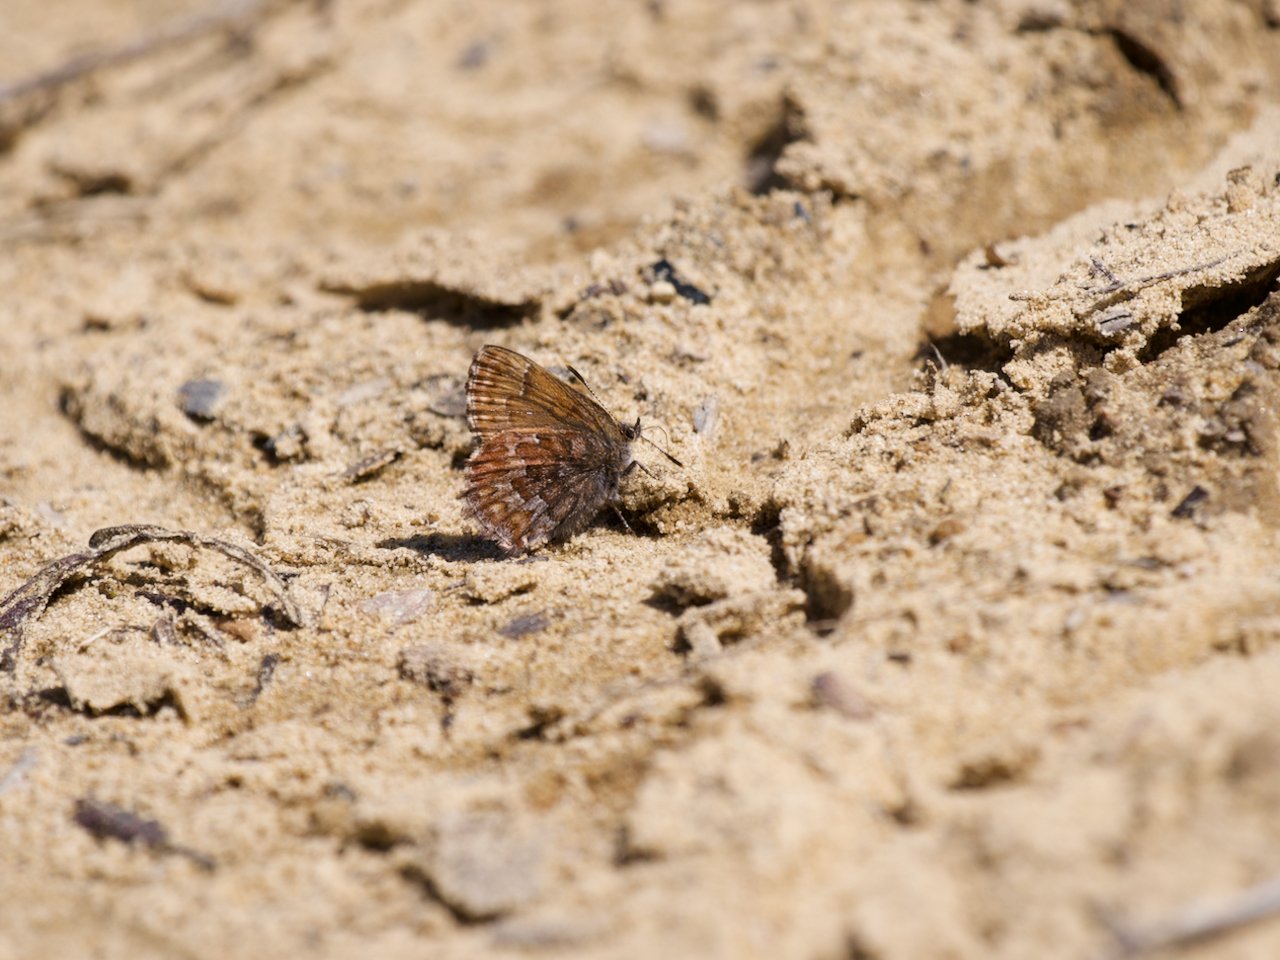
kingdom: Animalia
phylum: Arthropoda
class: Insecta
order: Lepidoptera
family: Lycaenidae
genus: Incisalia
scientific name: Incisalia niphon
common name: Eastern Pine Elfin
